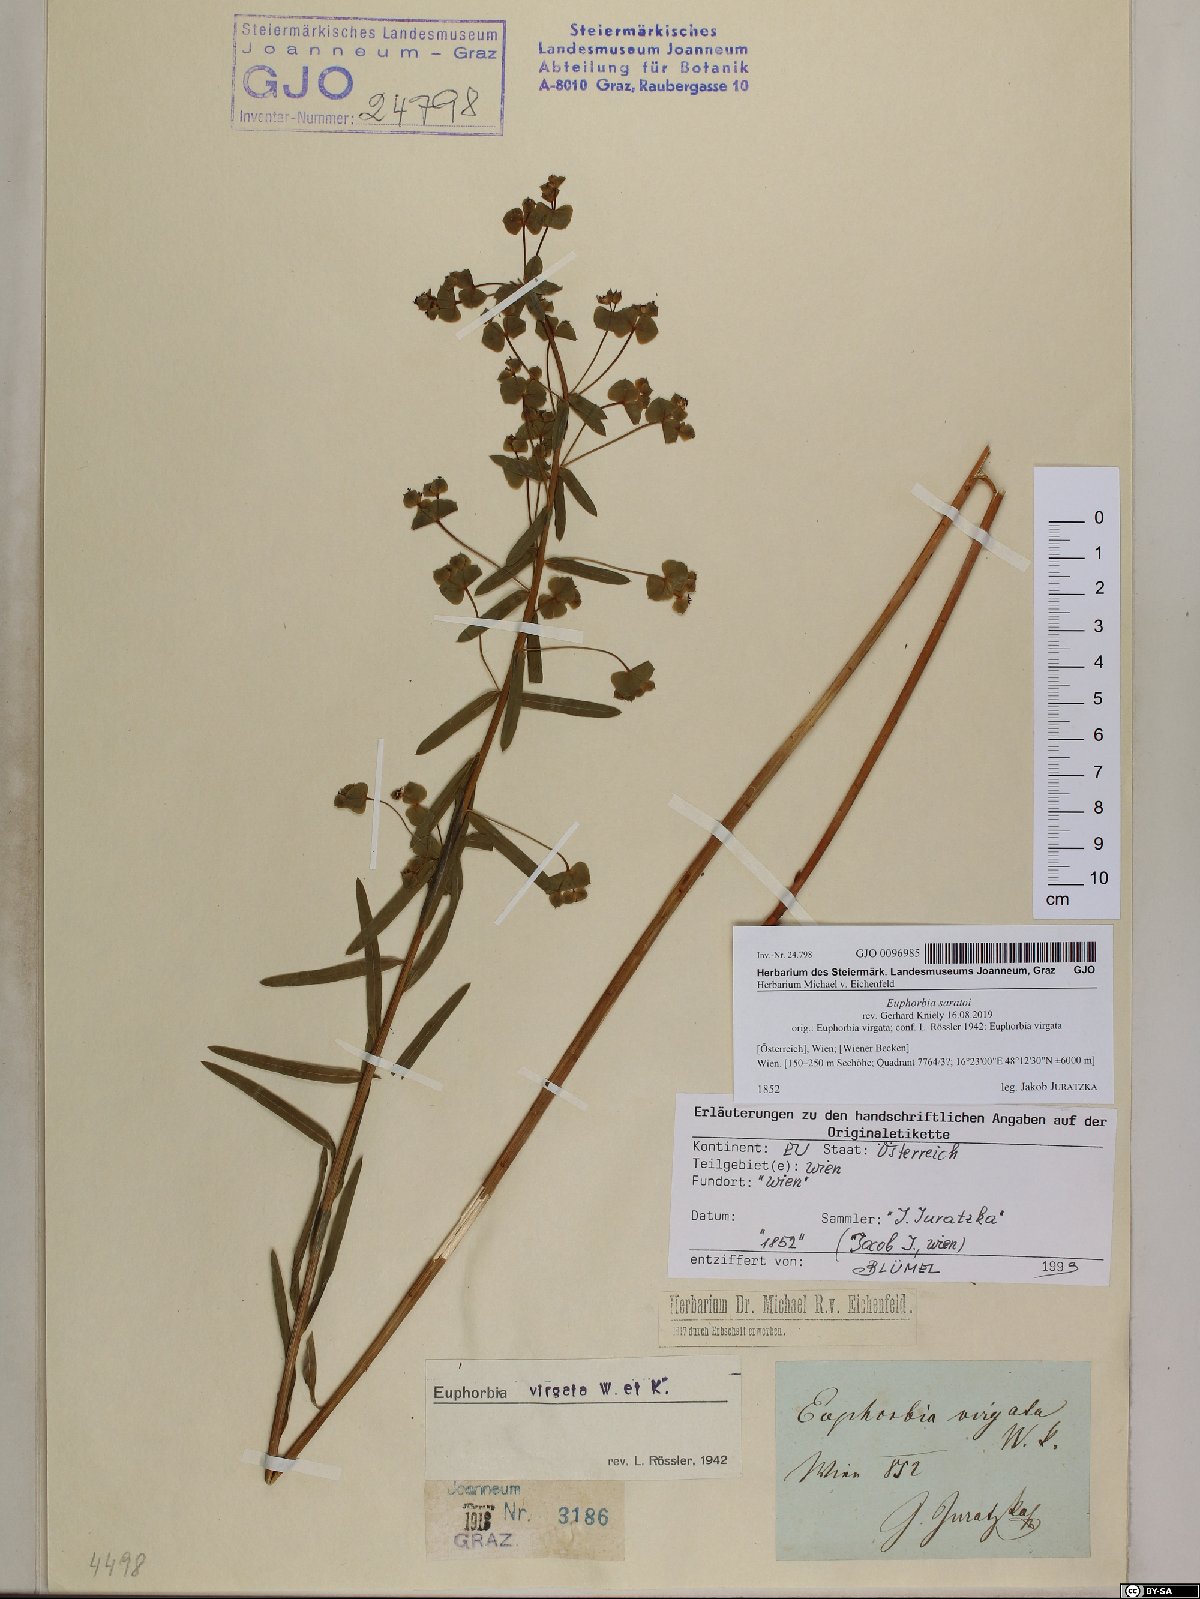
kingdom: Plantae
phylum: Tracheophyta
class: Magnoliopsida
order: Malpighiales
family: Euphorbiaceae
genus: Euphorbia
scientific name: Euphorbia saratoi
